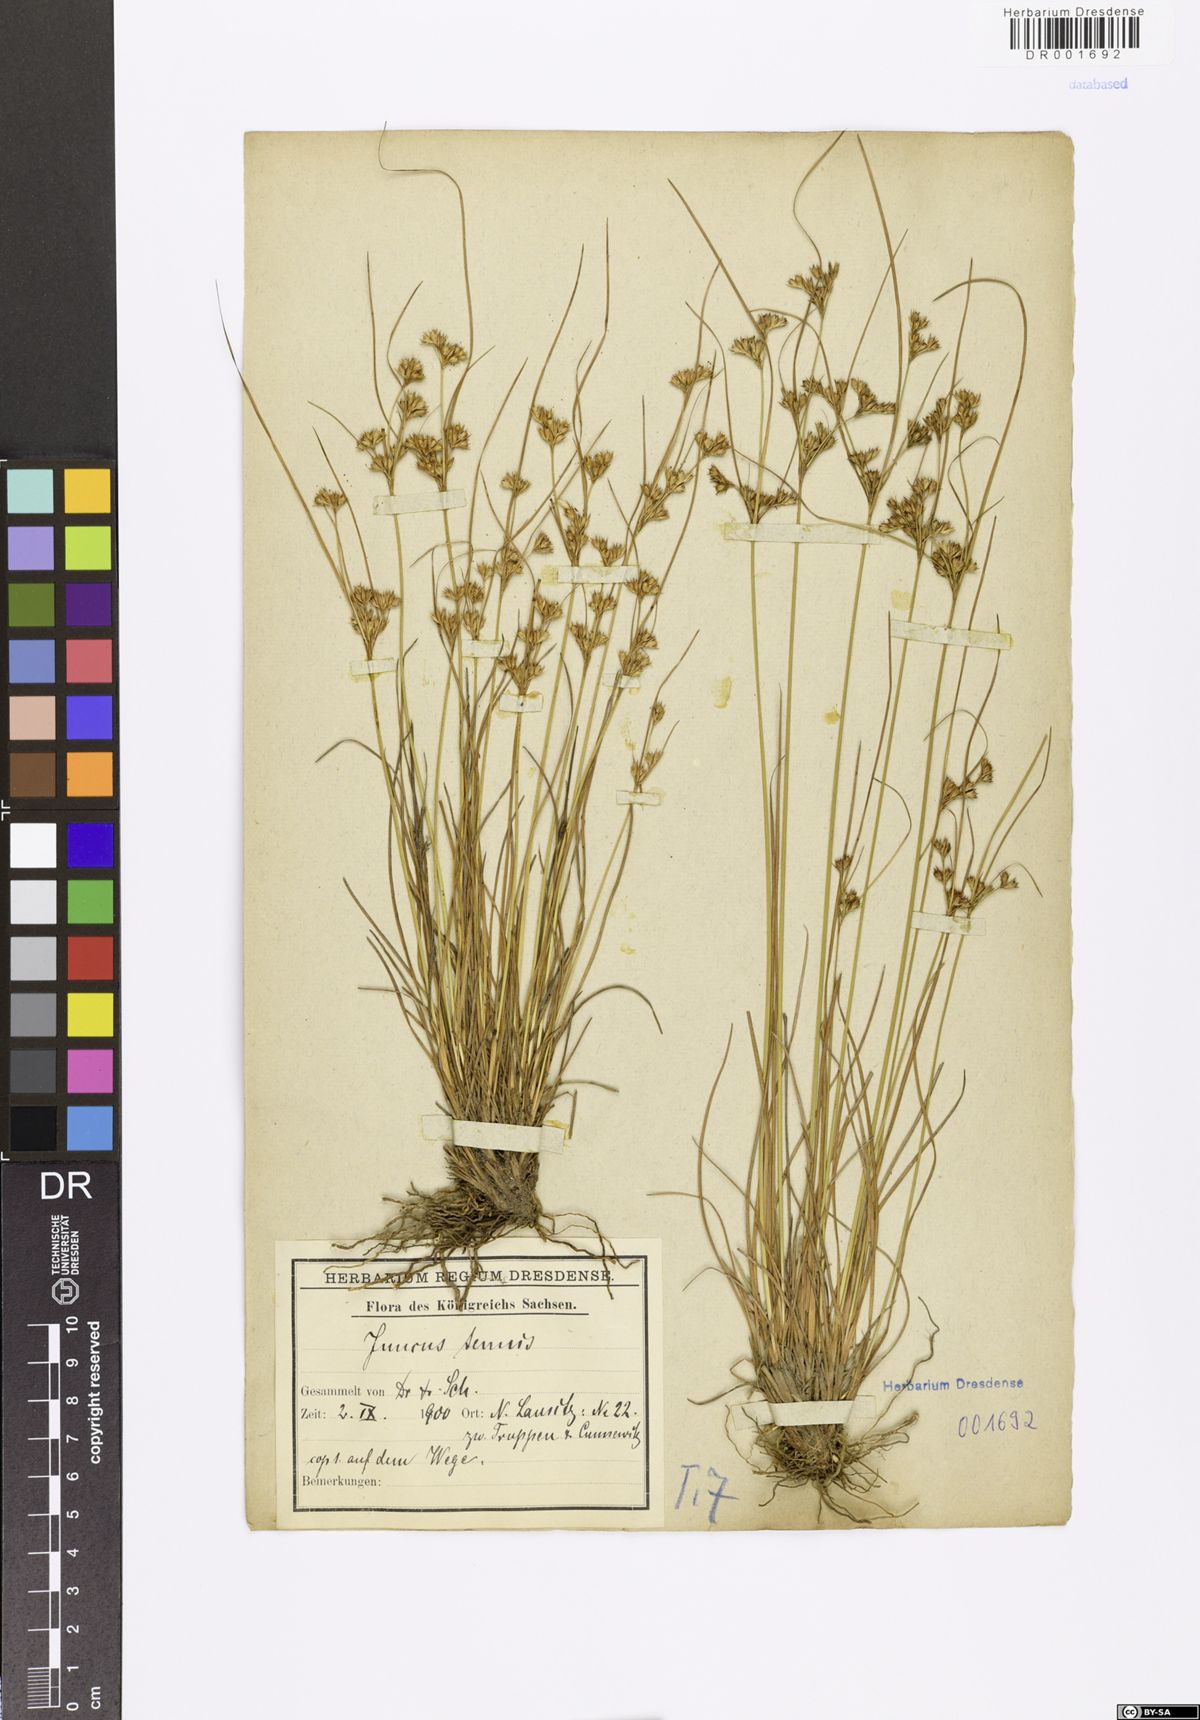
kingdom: Plantae
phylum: Tracheophyta
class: Liliopsida
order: Poales
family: Juncaceae
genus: Juncus
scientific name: Juncus tenuis
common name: Slender rush
